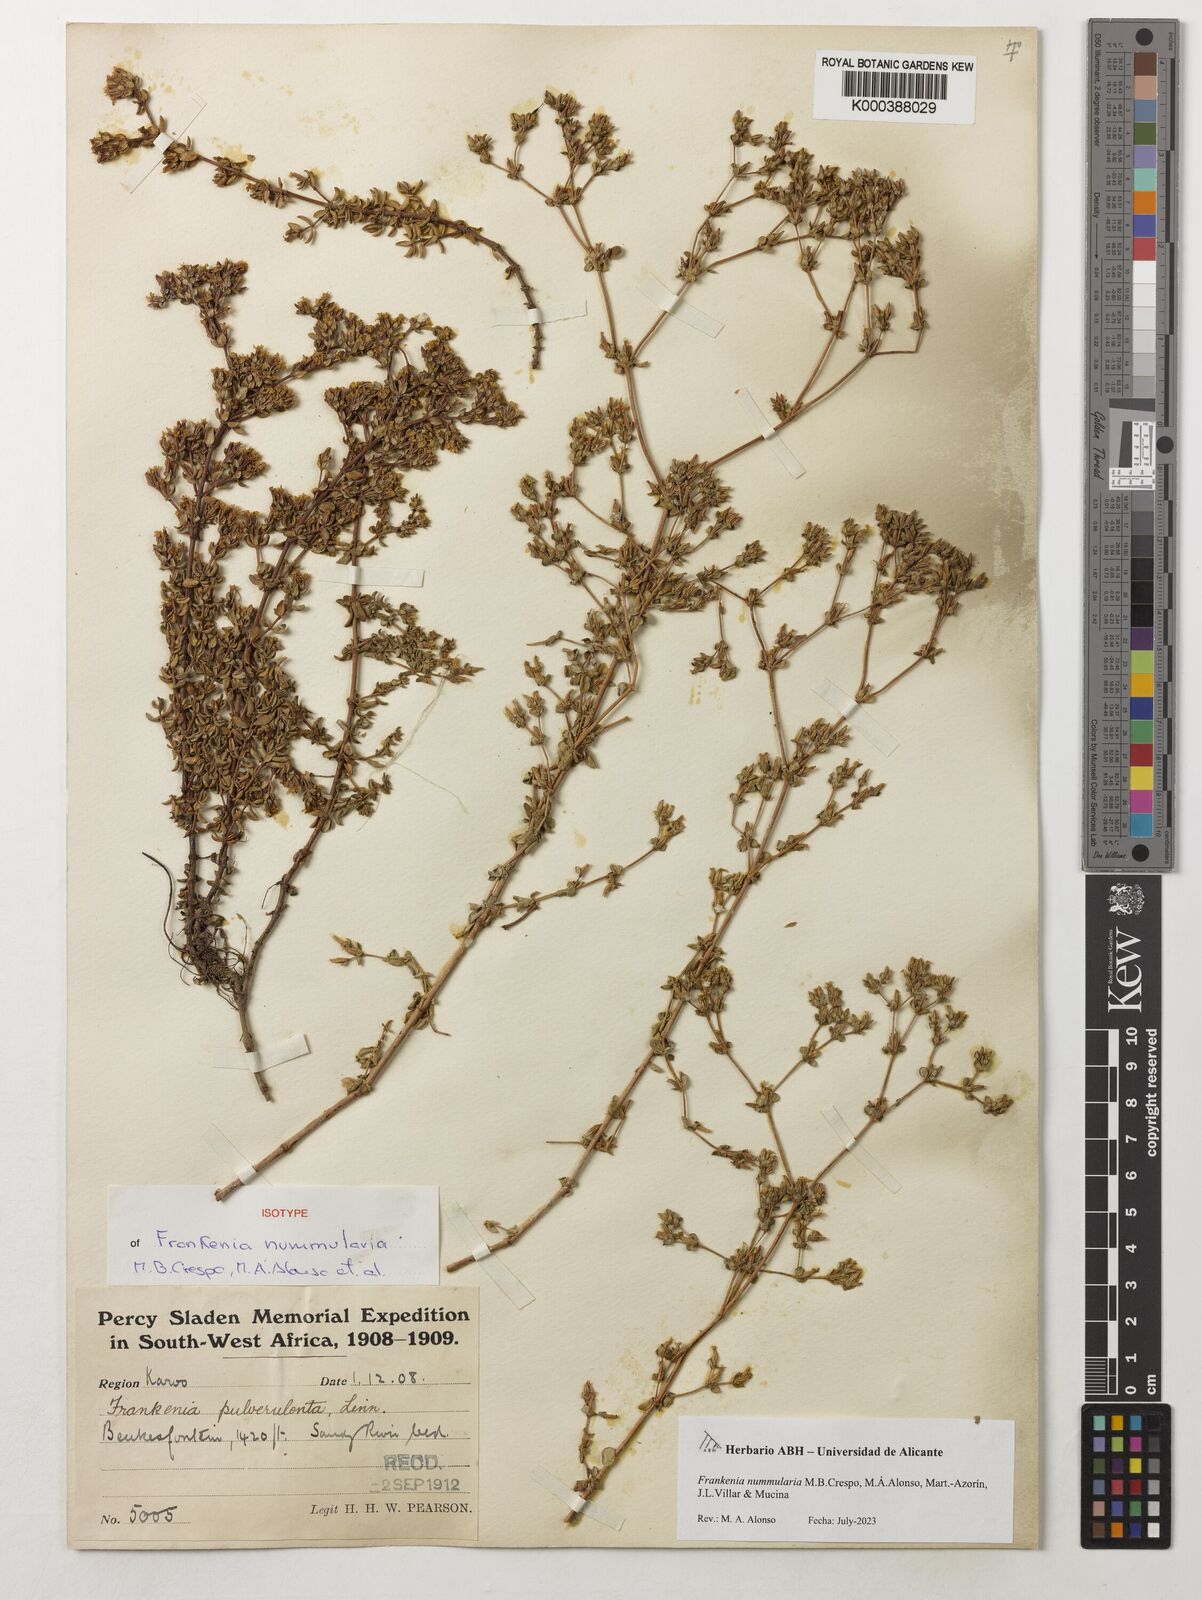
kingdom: Plantae
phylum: Tracheophyta
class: Magnoliopsida
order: Caryophyllales
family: Frankeniaceae
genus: Frankenia
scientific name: Frankenia
